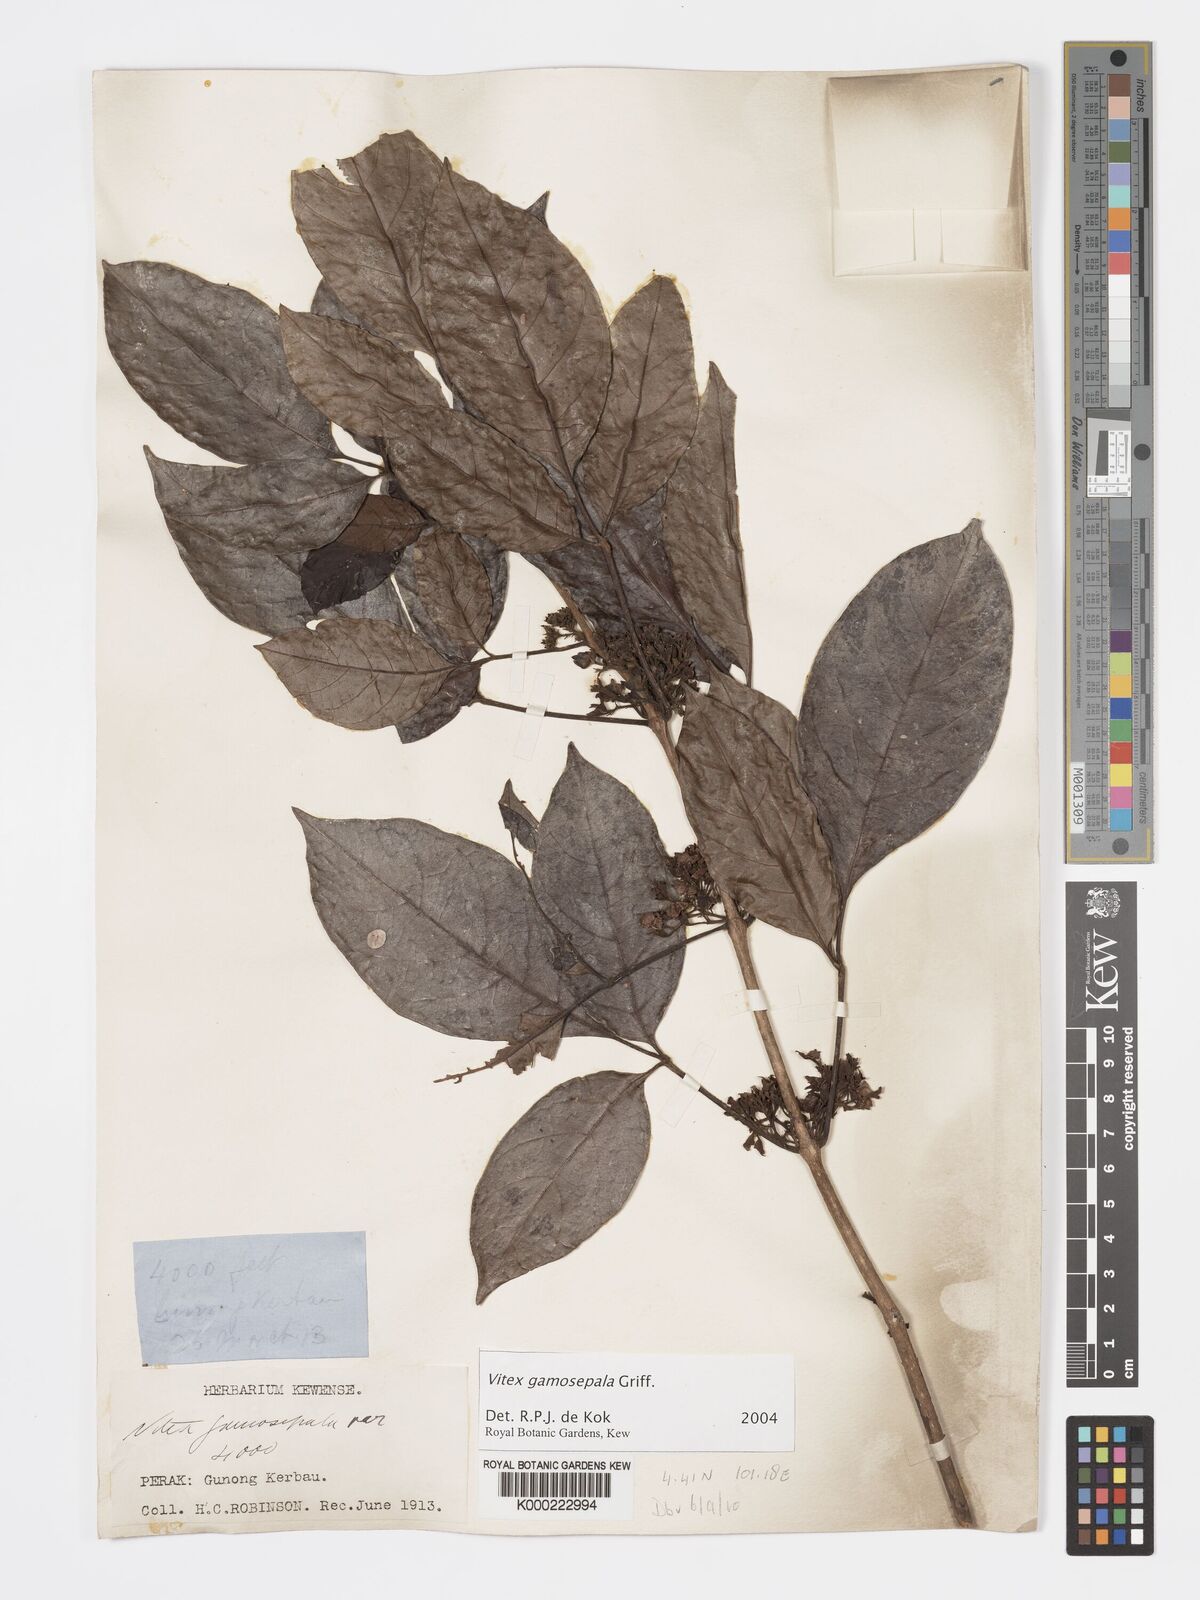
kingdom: Plantae
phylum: Tracheophyta
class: Magnoliopsida
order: Lamiales
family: Lamiaceae
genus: Vitex
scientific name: Vitex gamosepala
